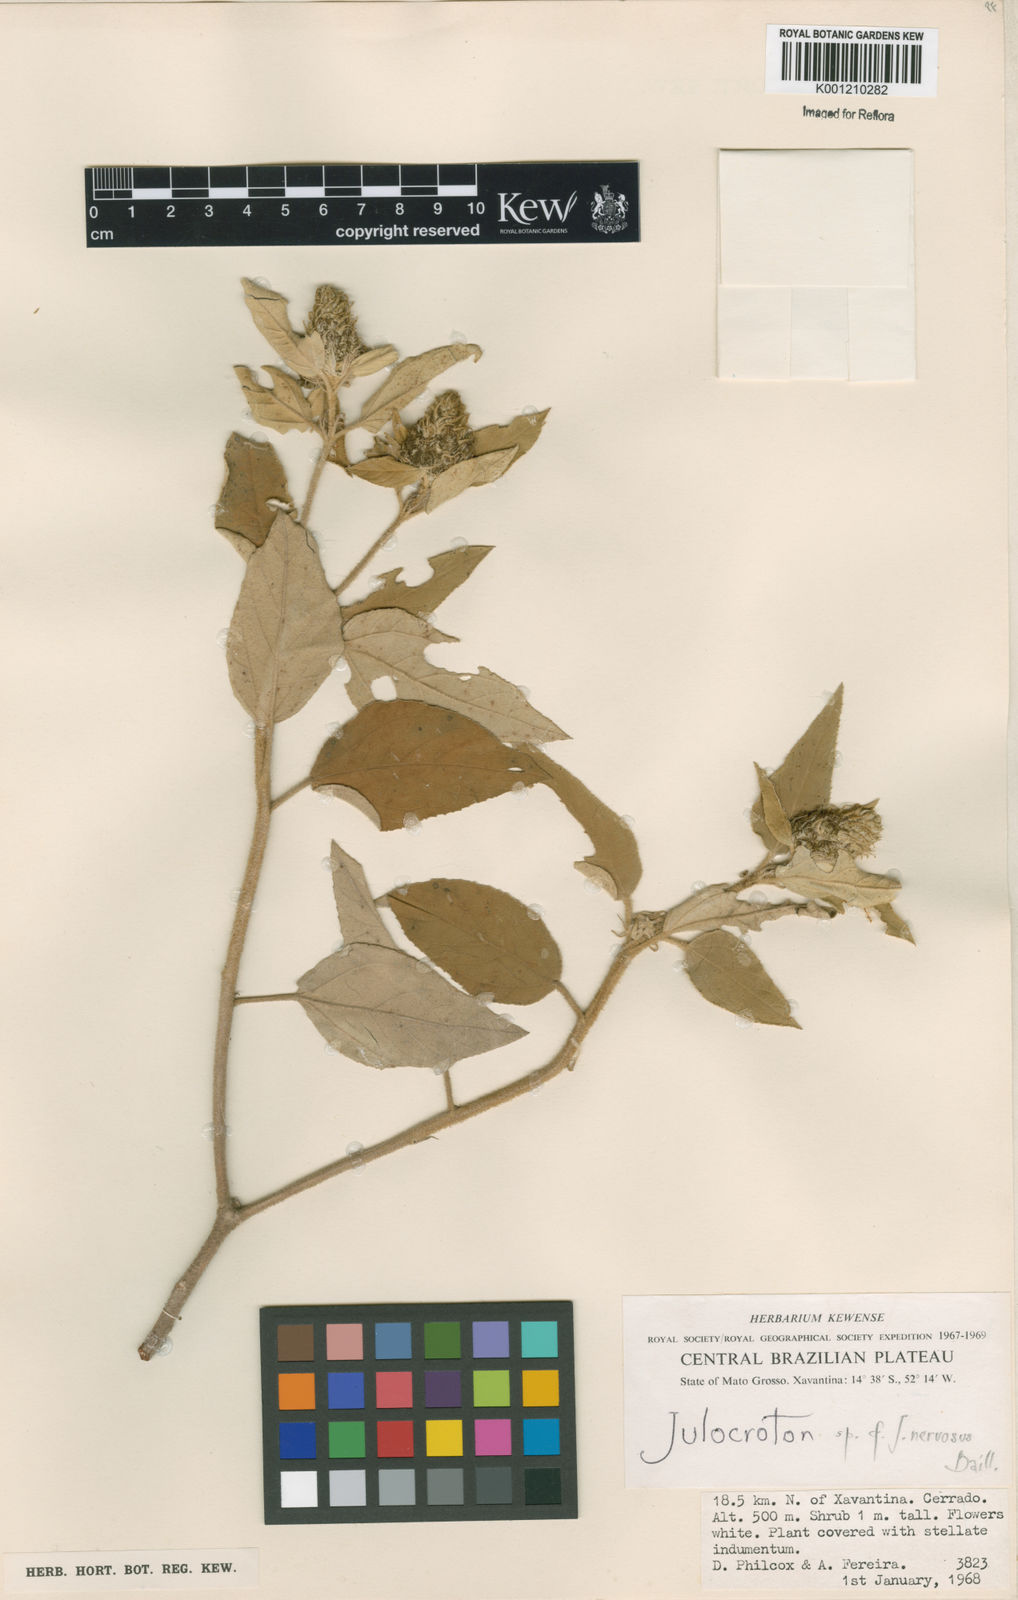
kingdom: Plantae
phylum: Tracheophyta
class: Magnoliopsida
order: Malpighiales
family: Euphorbiaceae
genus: Croton
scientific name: Croton calonervosus
